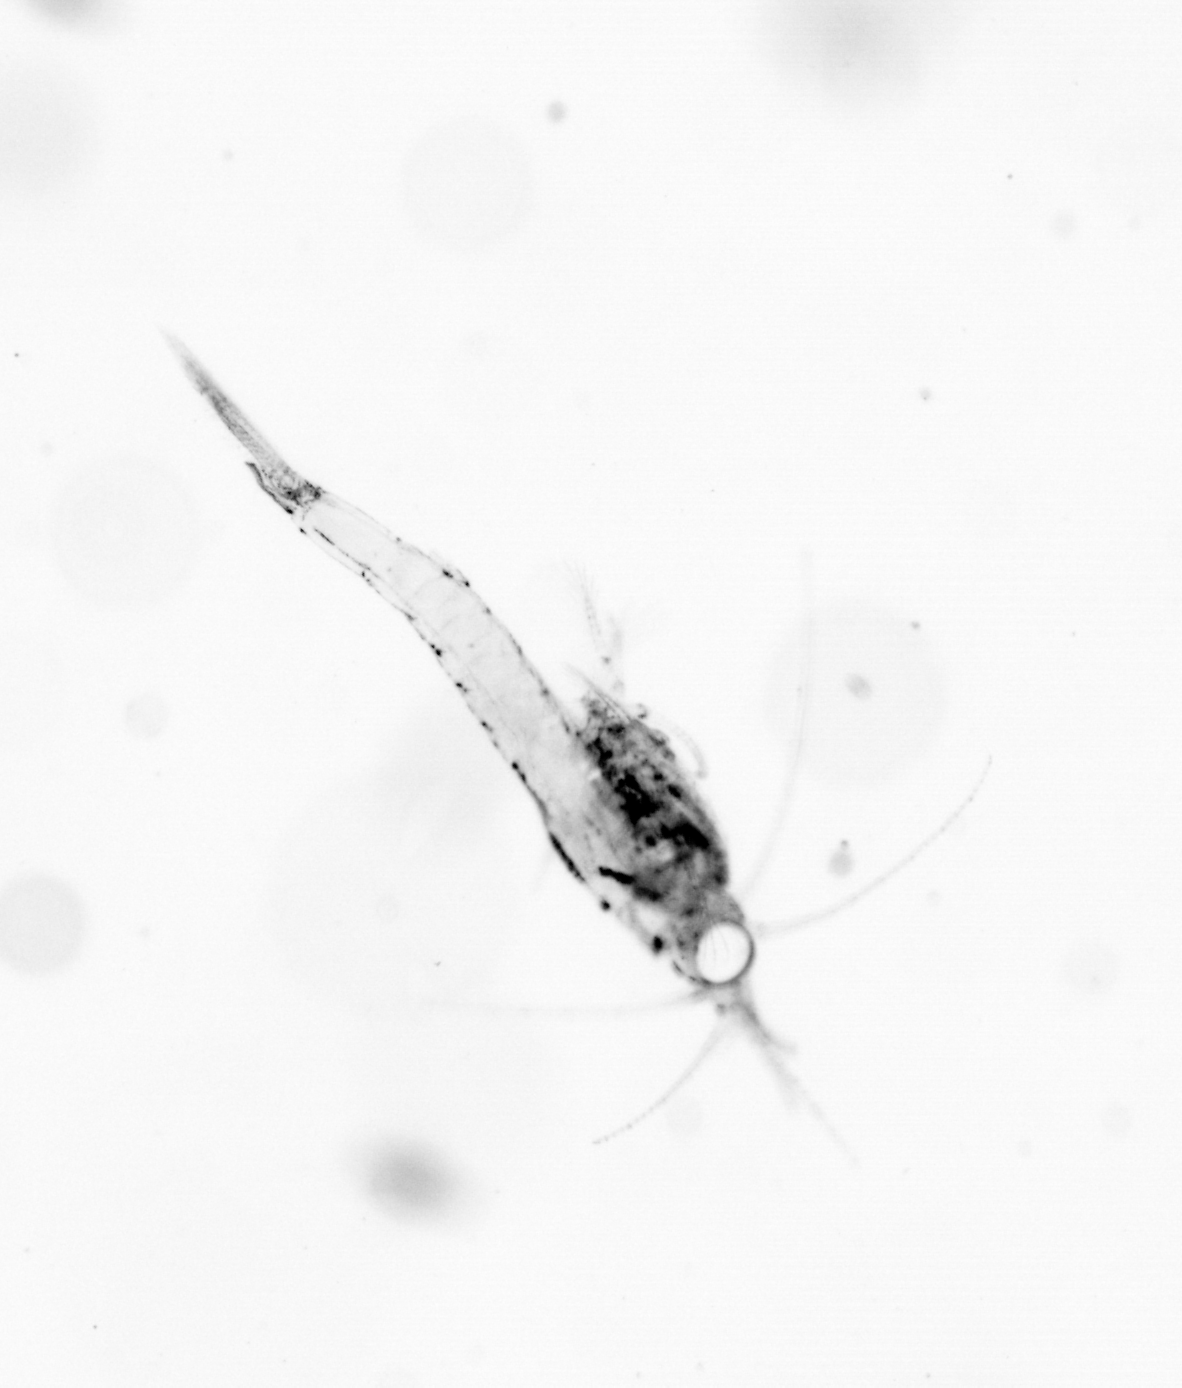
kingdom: Animalia
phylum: Arthropoda
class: Copepoda
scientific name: Copepoda
